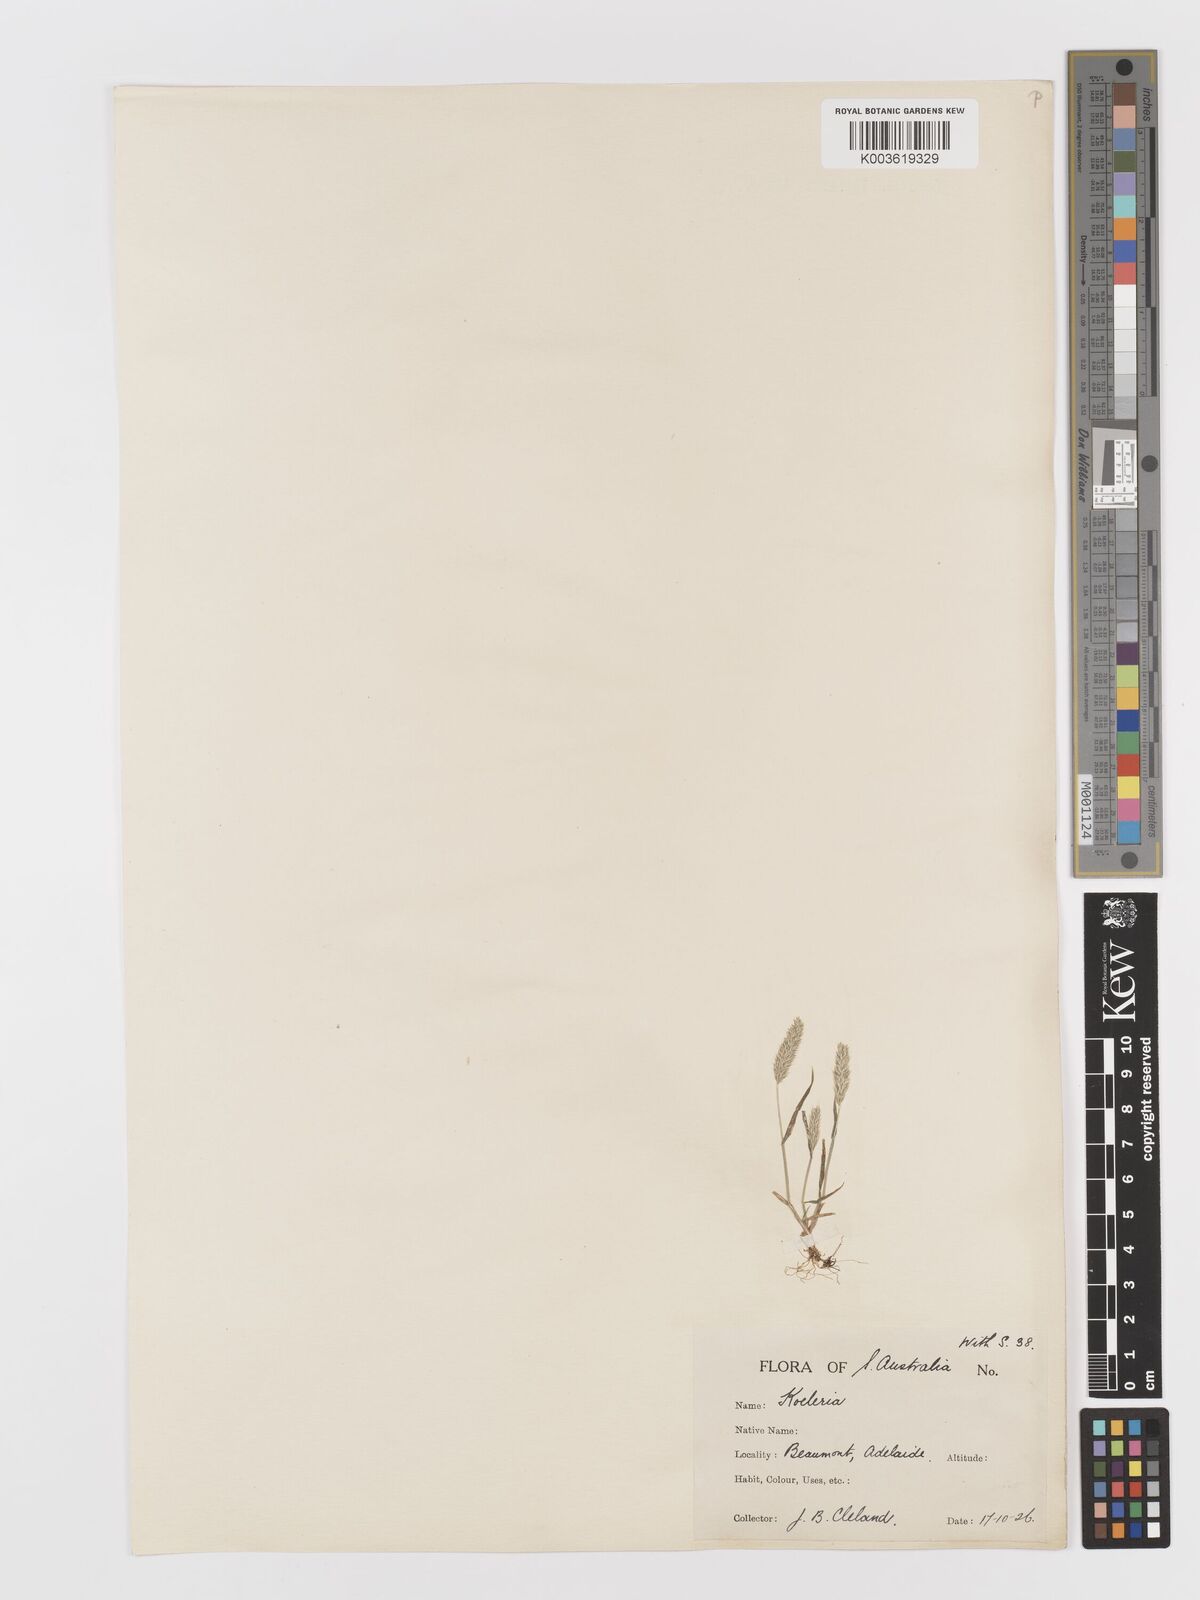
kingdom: Plantae
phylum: Tracheophyta
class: Liliopsida
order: Poales
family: Poaceae
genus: Rostraria
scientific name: Rostraria cristata
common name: Mediterranean hair-grass
